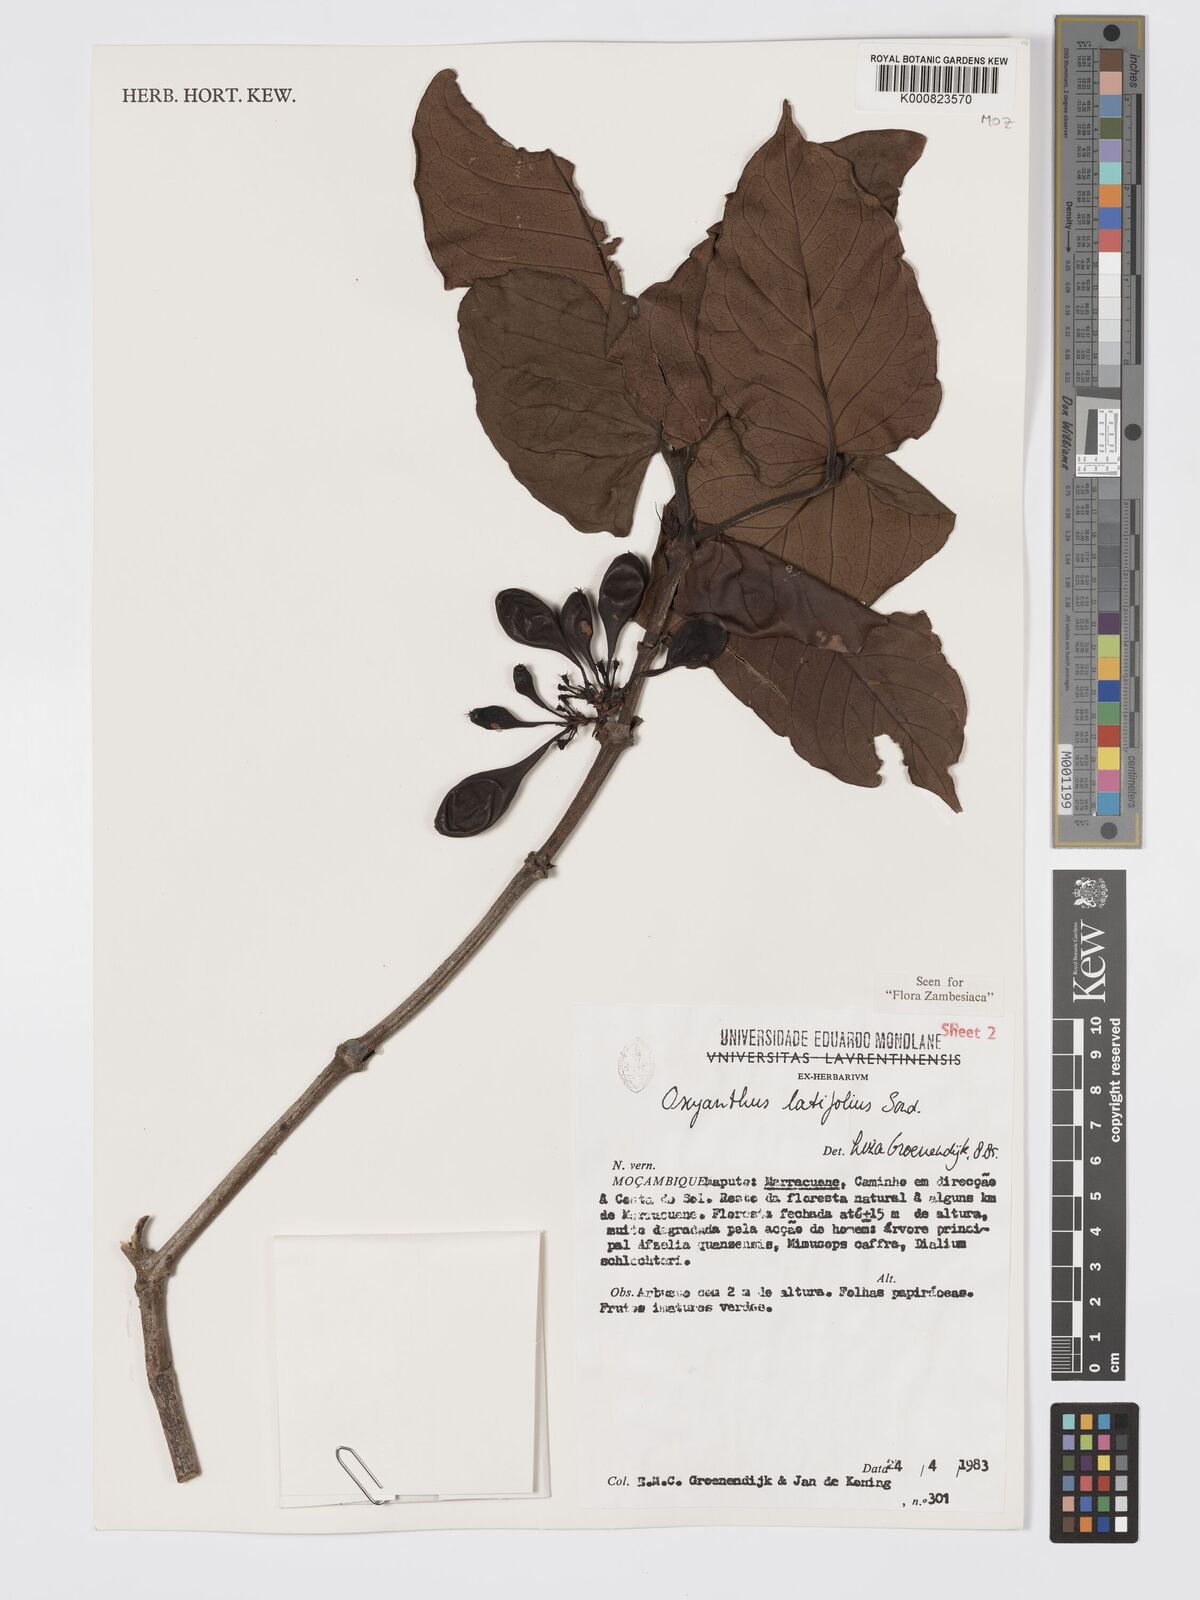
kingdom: Plantae
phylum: Tracheophyta
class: Magnoliopsida
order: Gentianales
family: Rubiaceae
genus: Oxyanthus
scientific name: Oxyanthus latifolius
